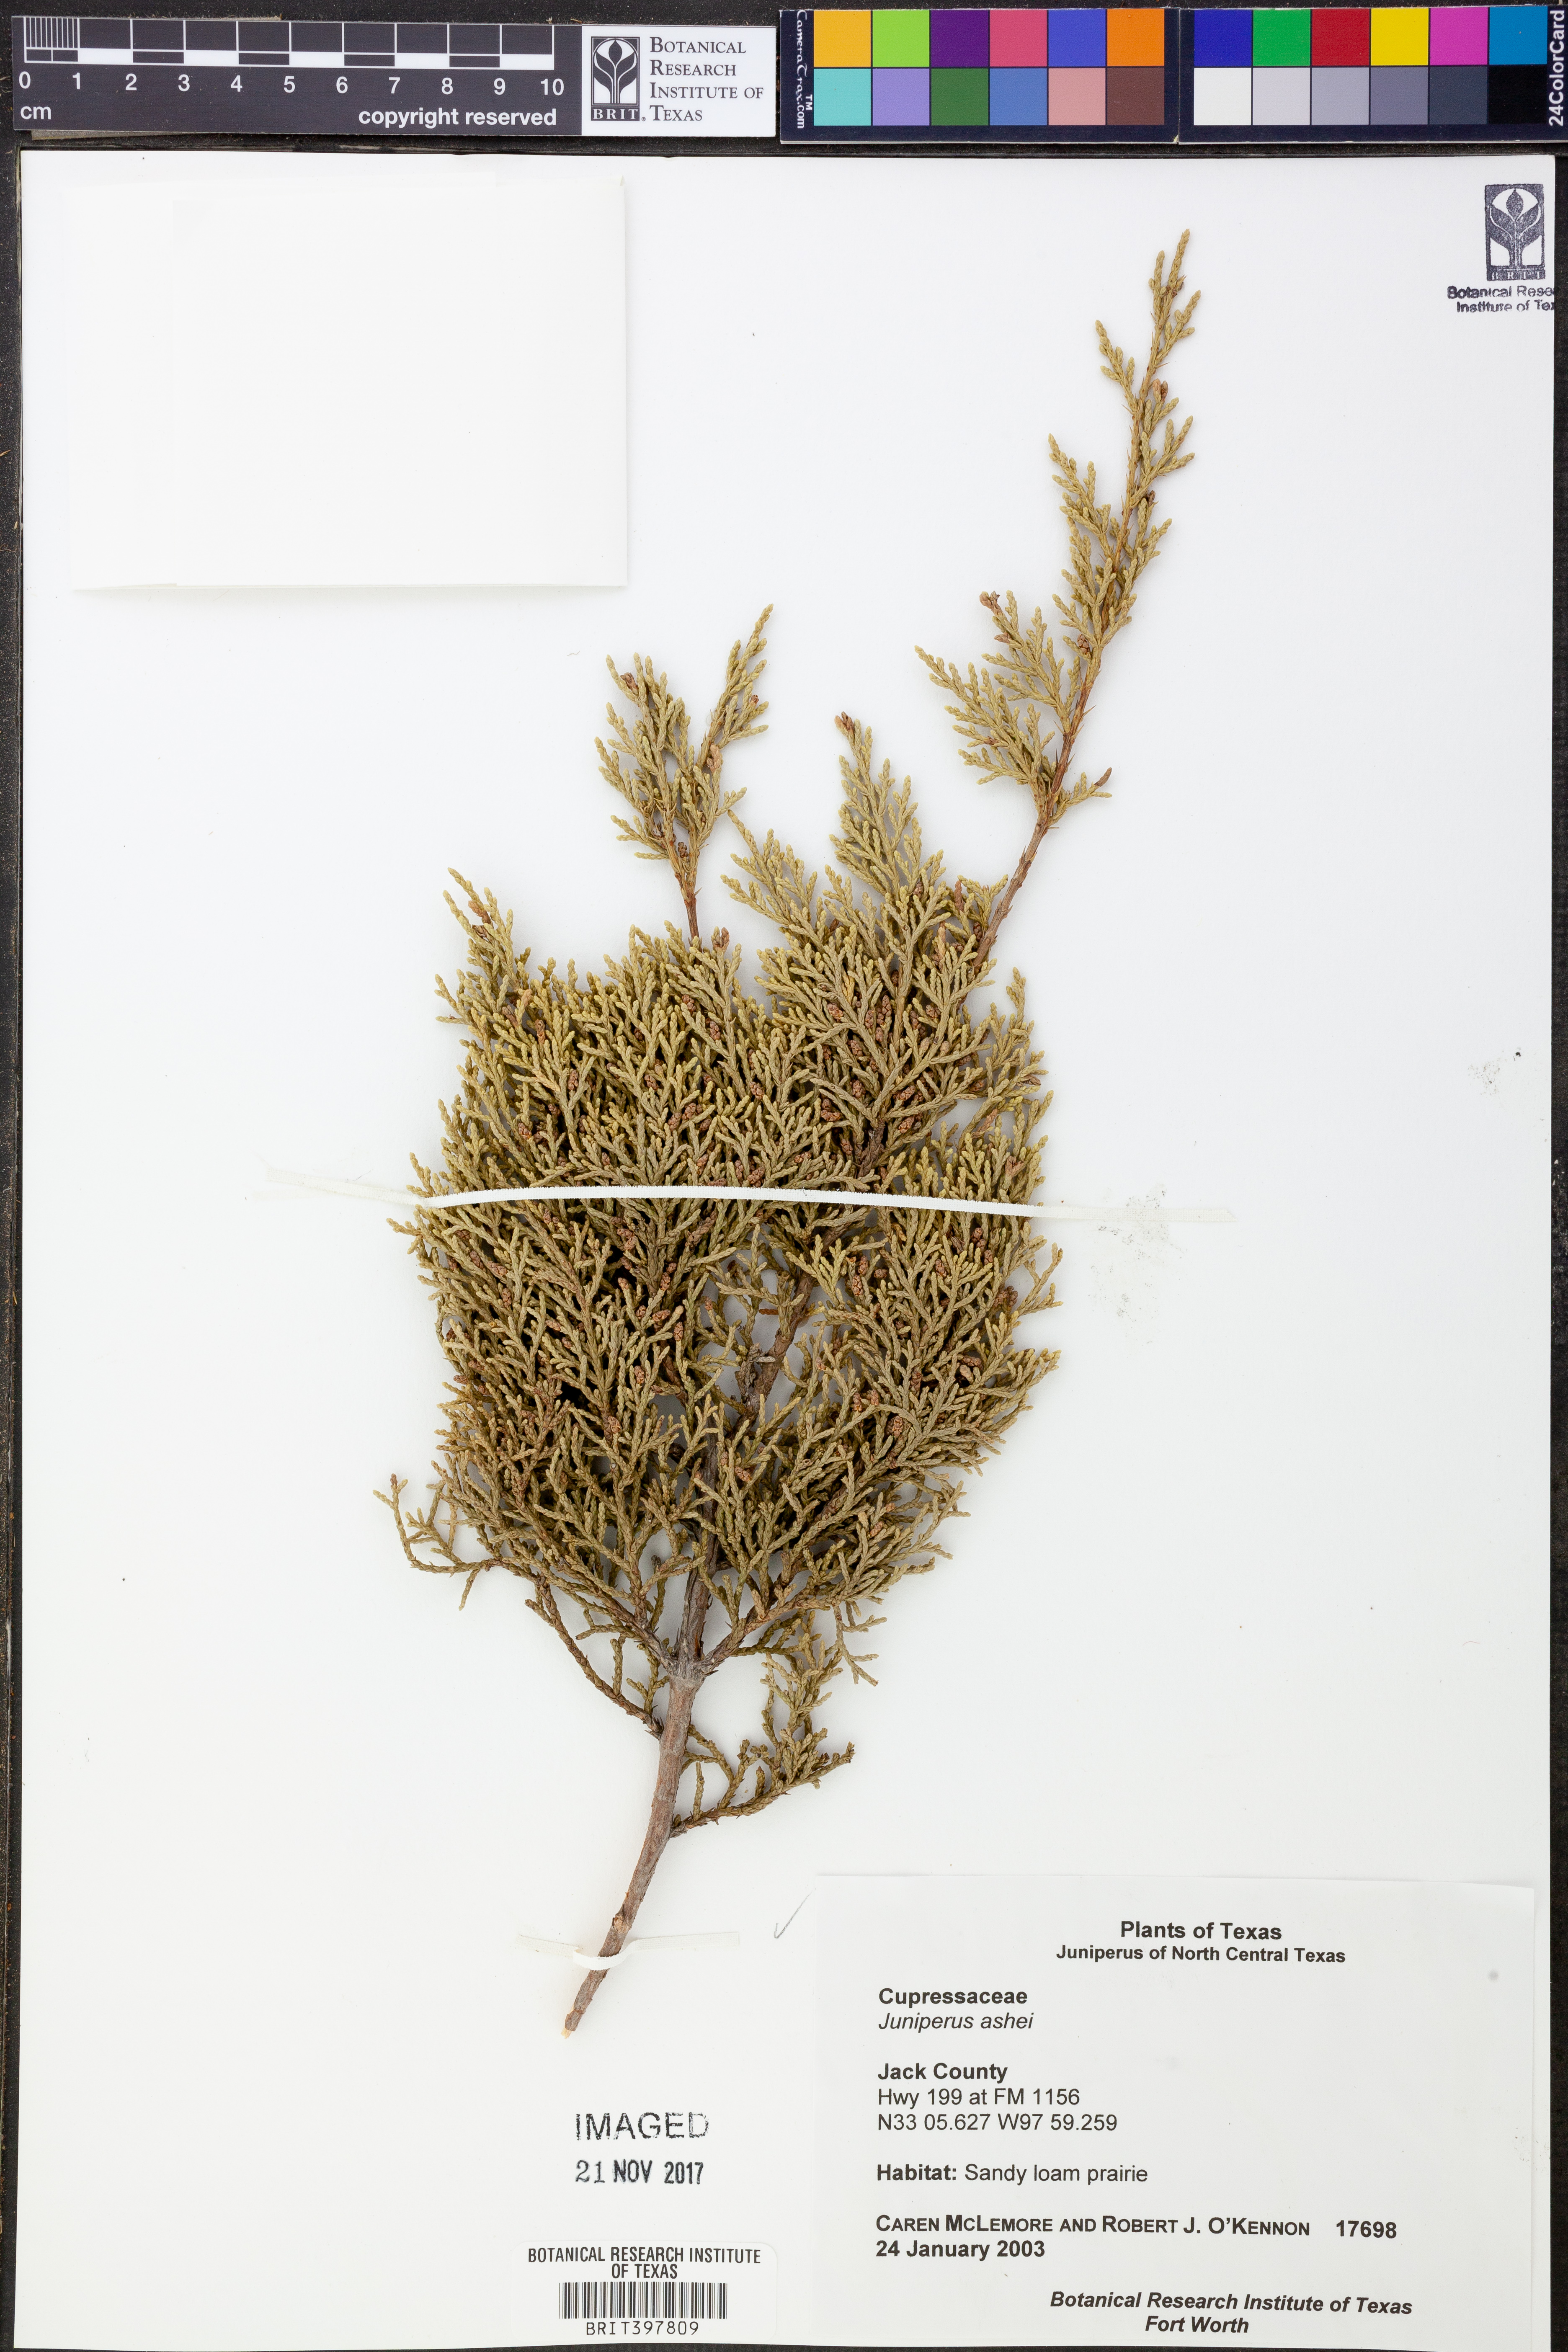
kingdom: Plantae
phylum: Tracheophyta
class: Pinopsida
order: Pinales
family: Cupressaceae
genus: Juniperus
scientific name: Juniperus ashei
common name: Mexican juniper
